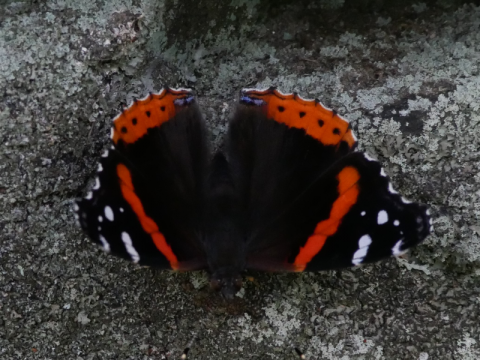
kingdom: Animalia
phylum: Arthropoda
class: Insecta
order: Lepidoptera
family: Nymphalidae
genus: Vanessa
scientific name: Vanessa atalanta
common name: Red Admiral
